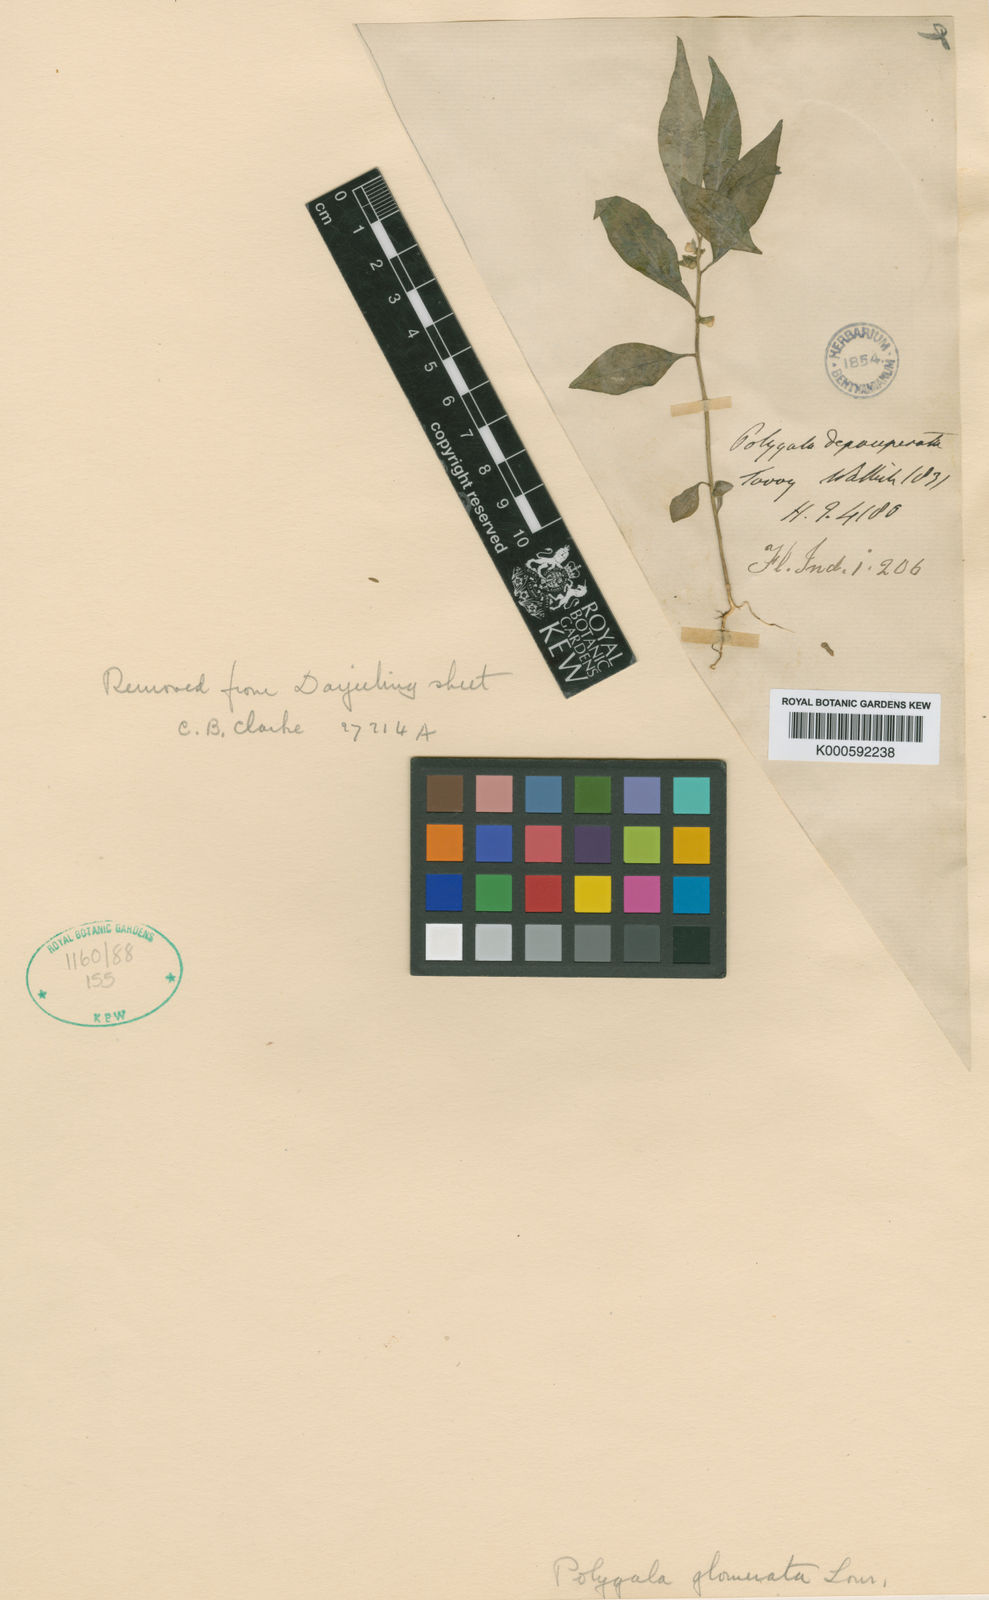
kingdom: Plantae
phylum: Tracheophyta
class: Magnoliopsida
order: Fabales
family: Polygalaceae
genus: Polygala
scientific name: Polygala glomerata
